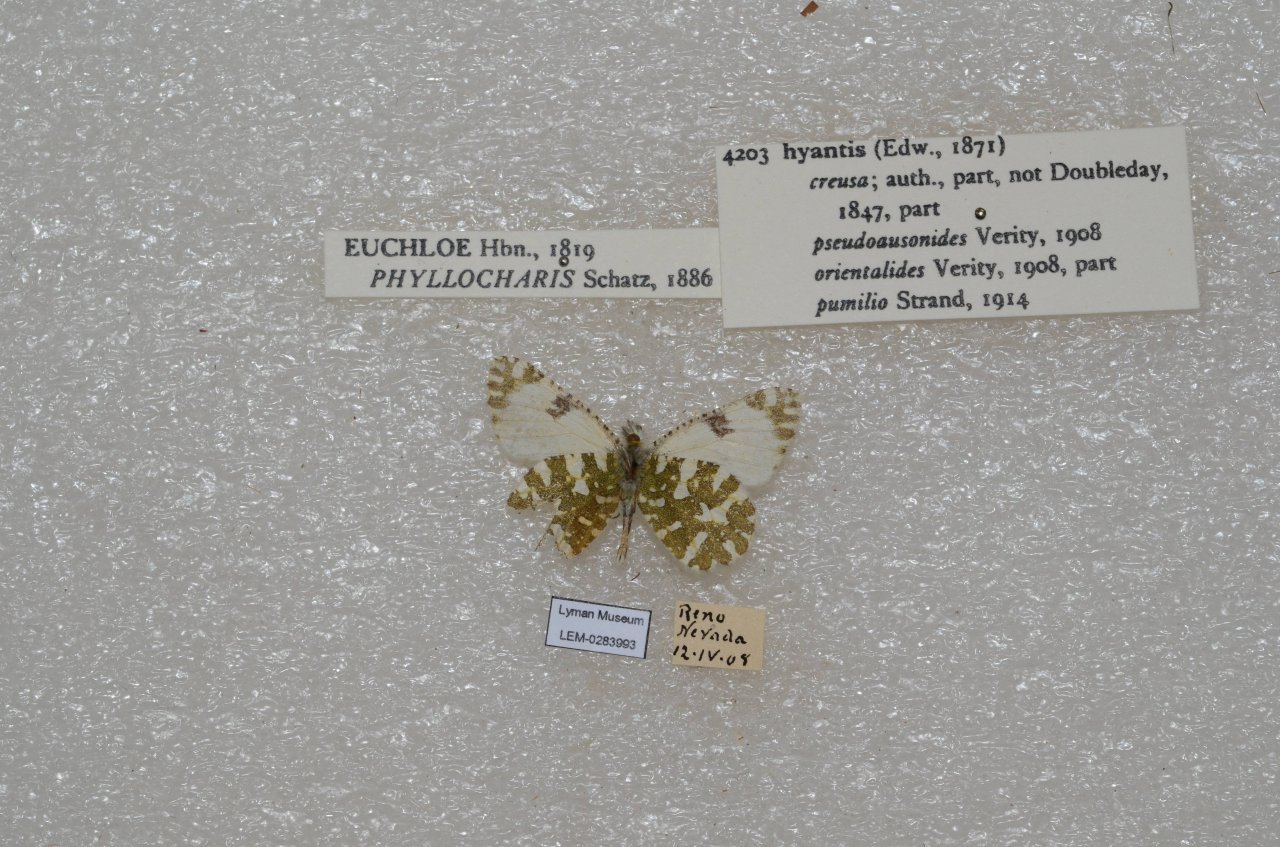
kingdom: Animalia
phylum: Arthropoda
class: Insecta
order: Lepidoptera
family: Pieridae
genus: Euchloe
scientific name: Euchloe hyantis
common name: California Marble
